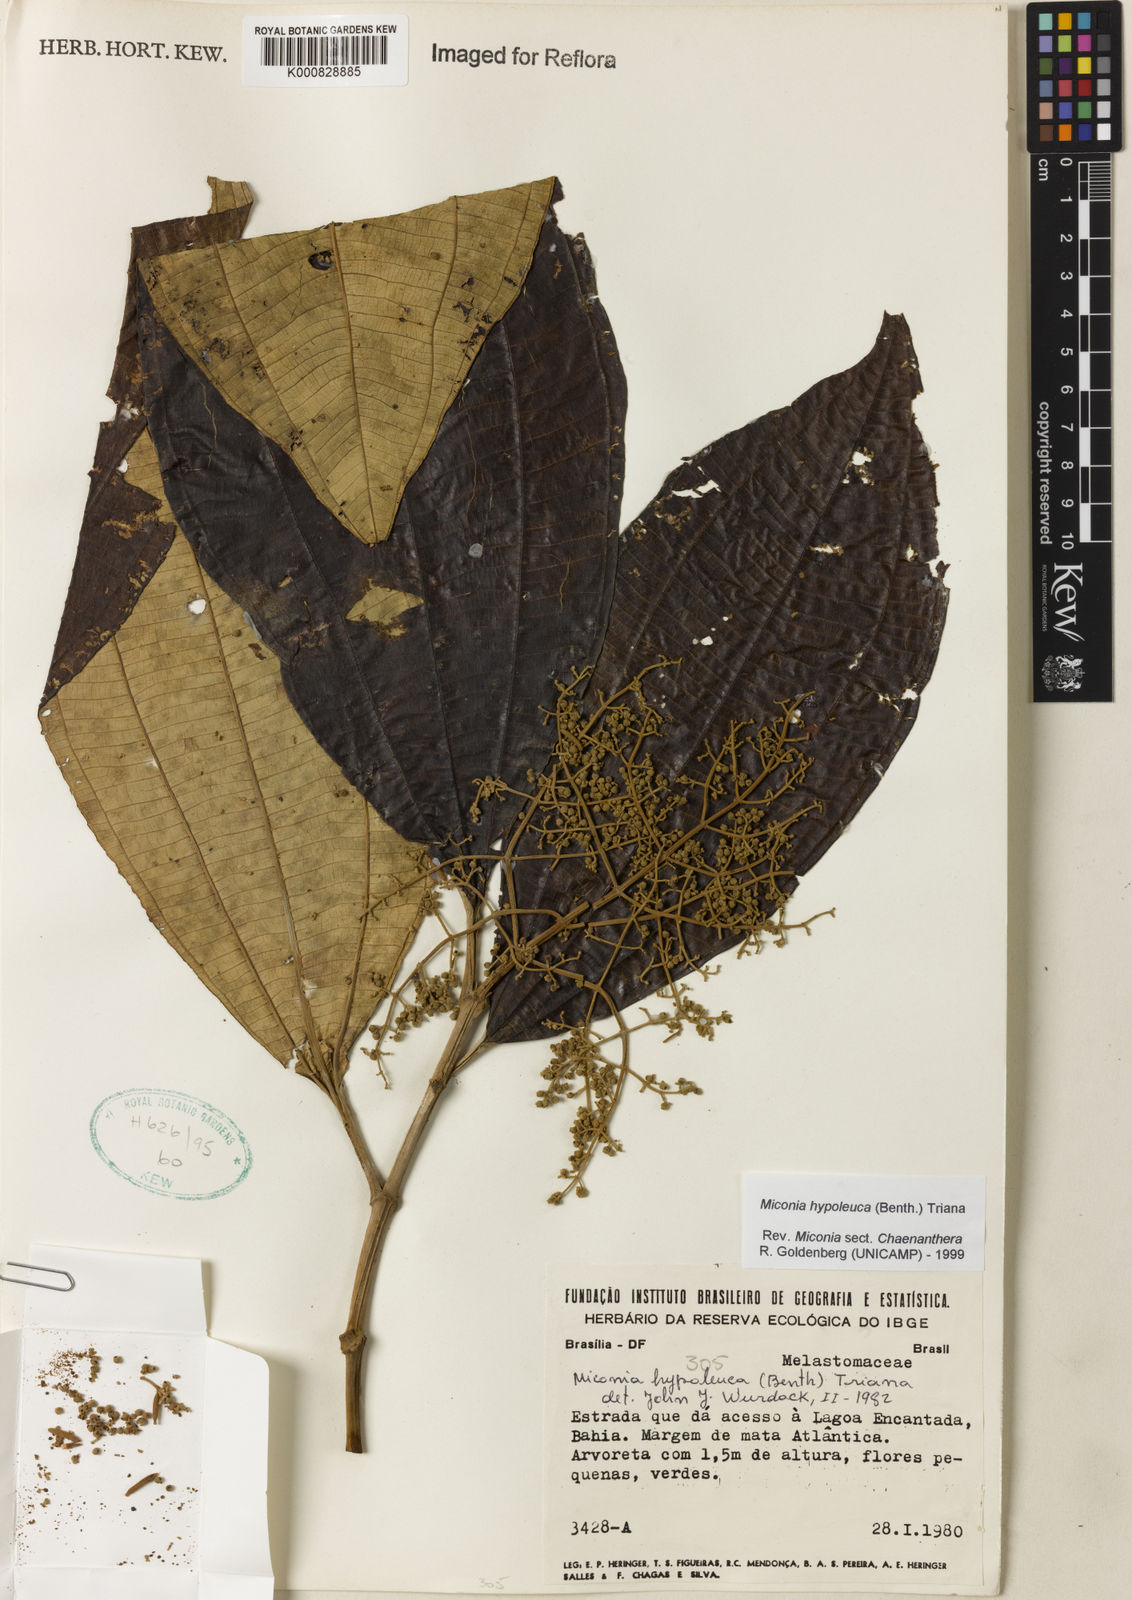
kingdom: Plantae
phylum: Tracheophyta
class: Magnoliopsida
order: Myrtales
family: Melastomataceae
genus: Miconia
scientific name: Miconia hypoleuca
